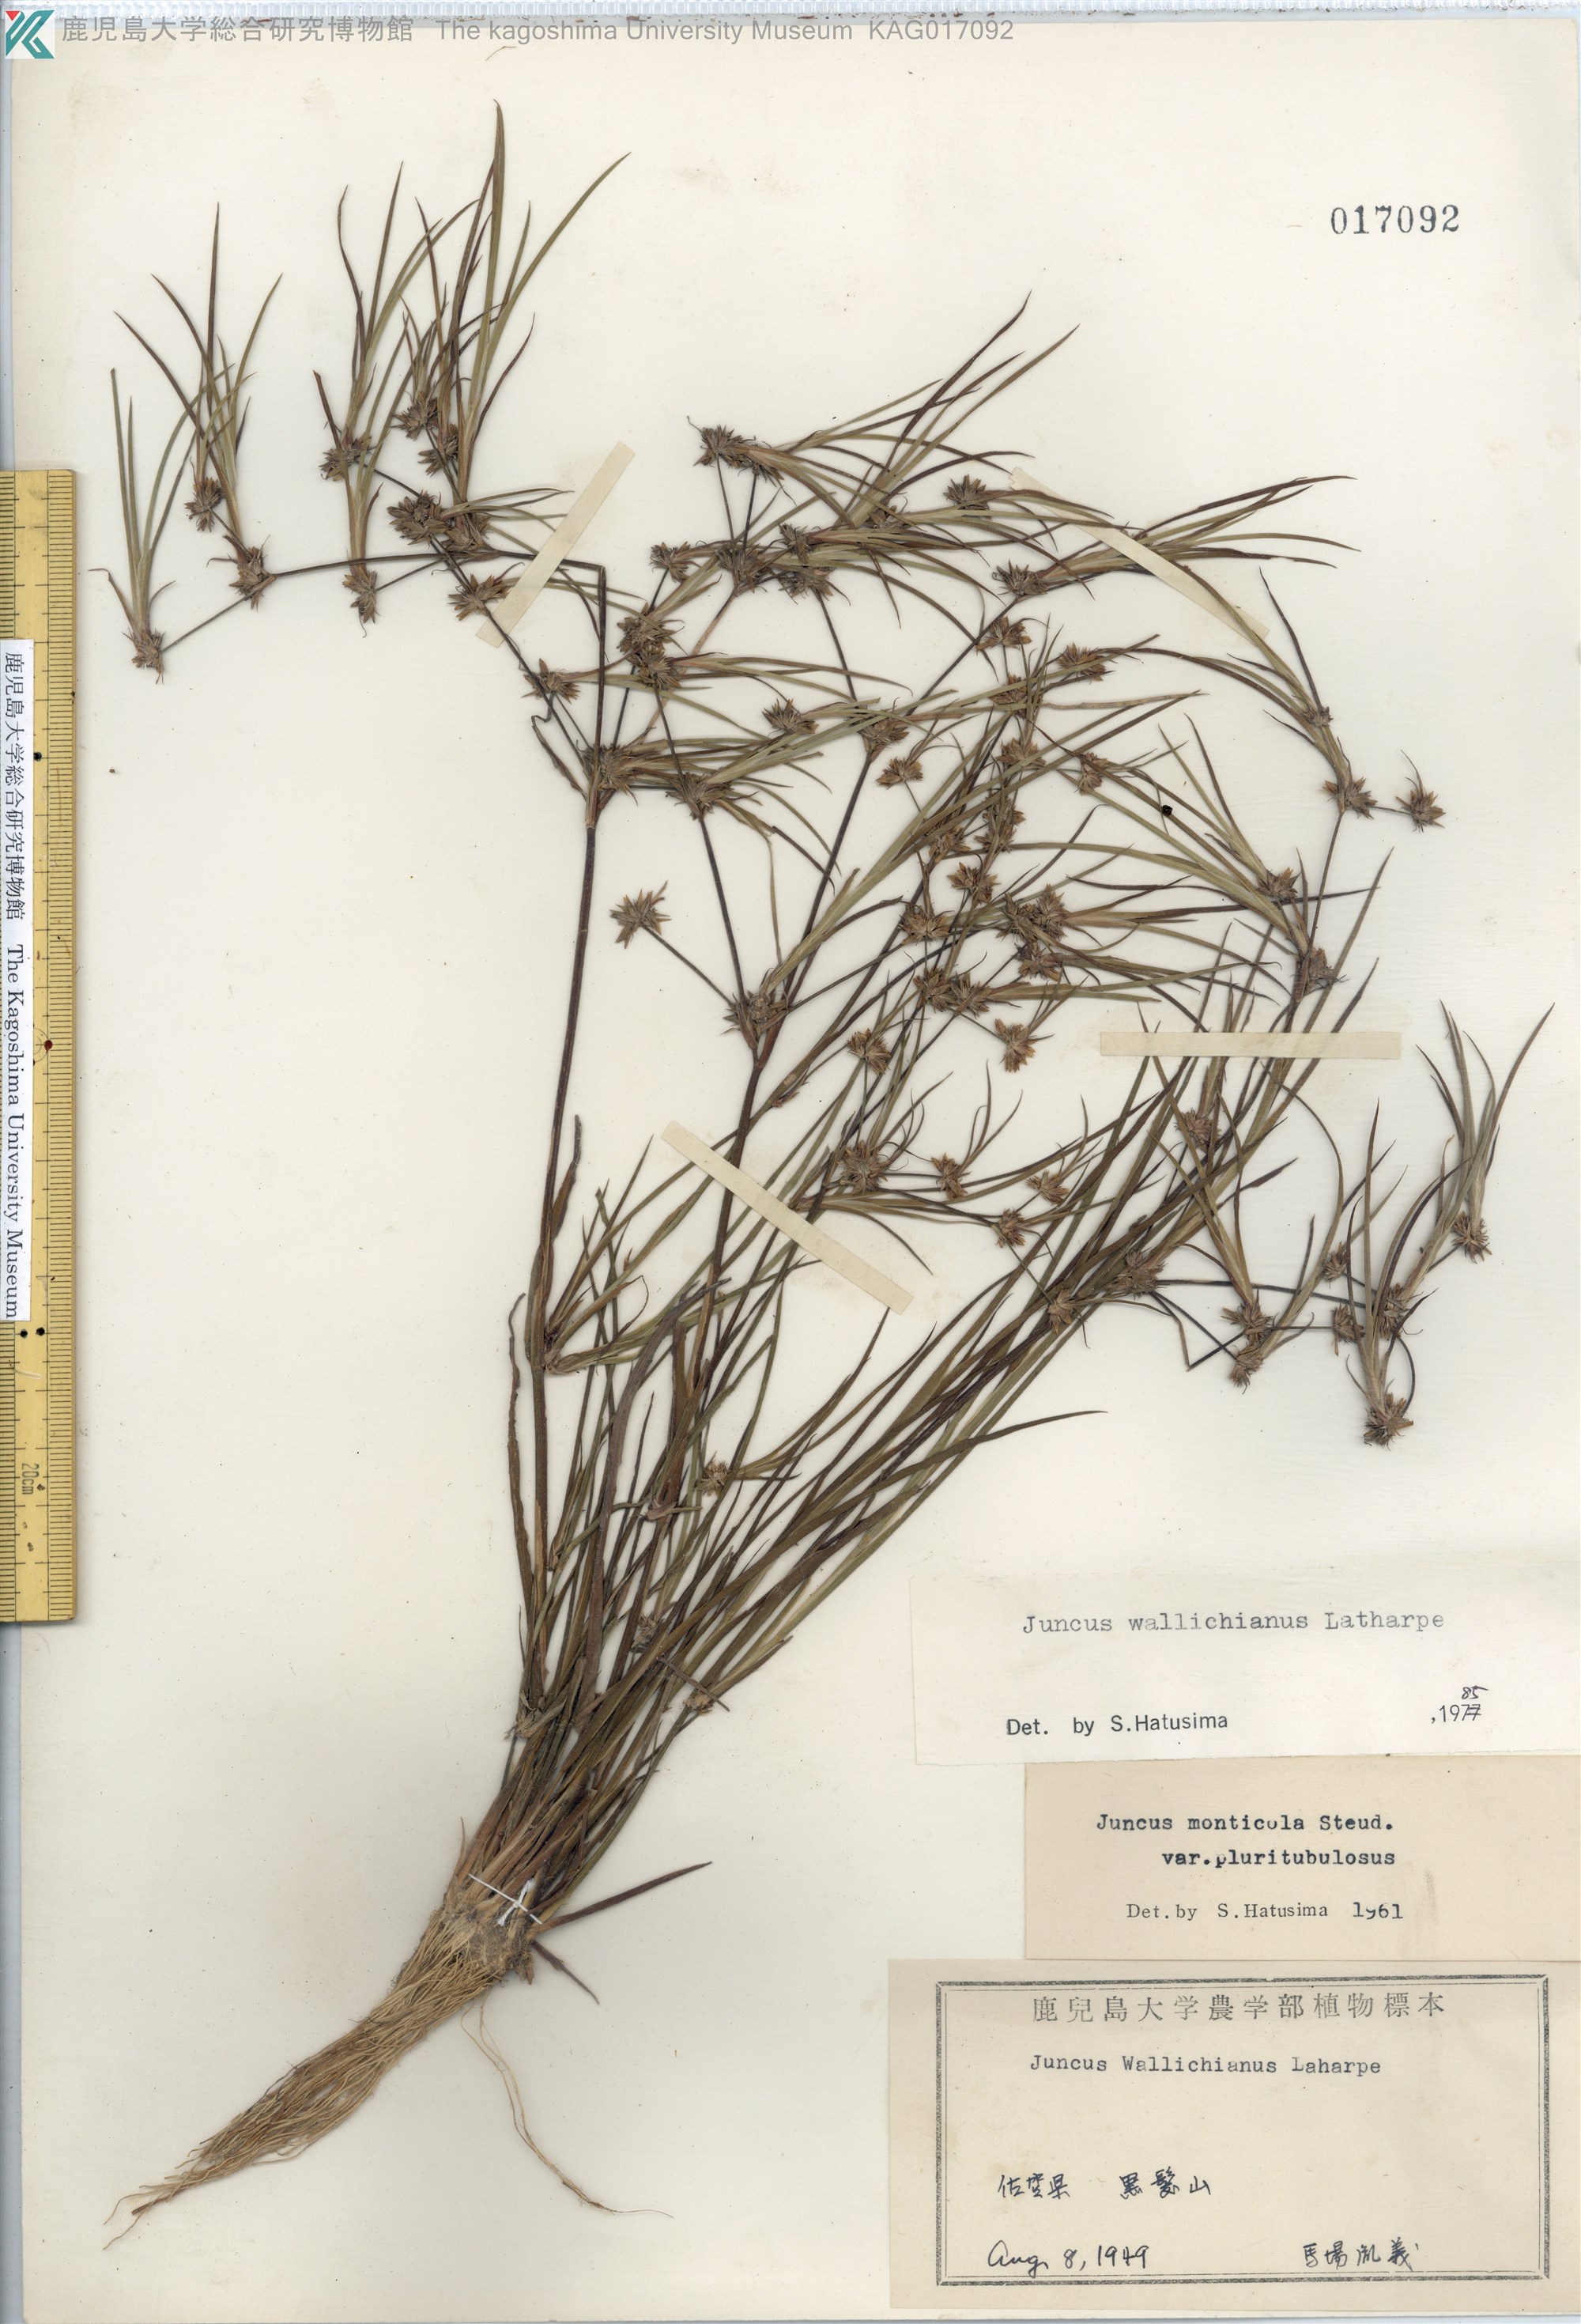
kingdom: Plantae
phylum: Tracheophyta
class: Liliopsida
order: Poales
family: Juncaceae
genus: Juncus
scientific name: Juncus prismatocarpus
